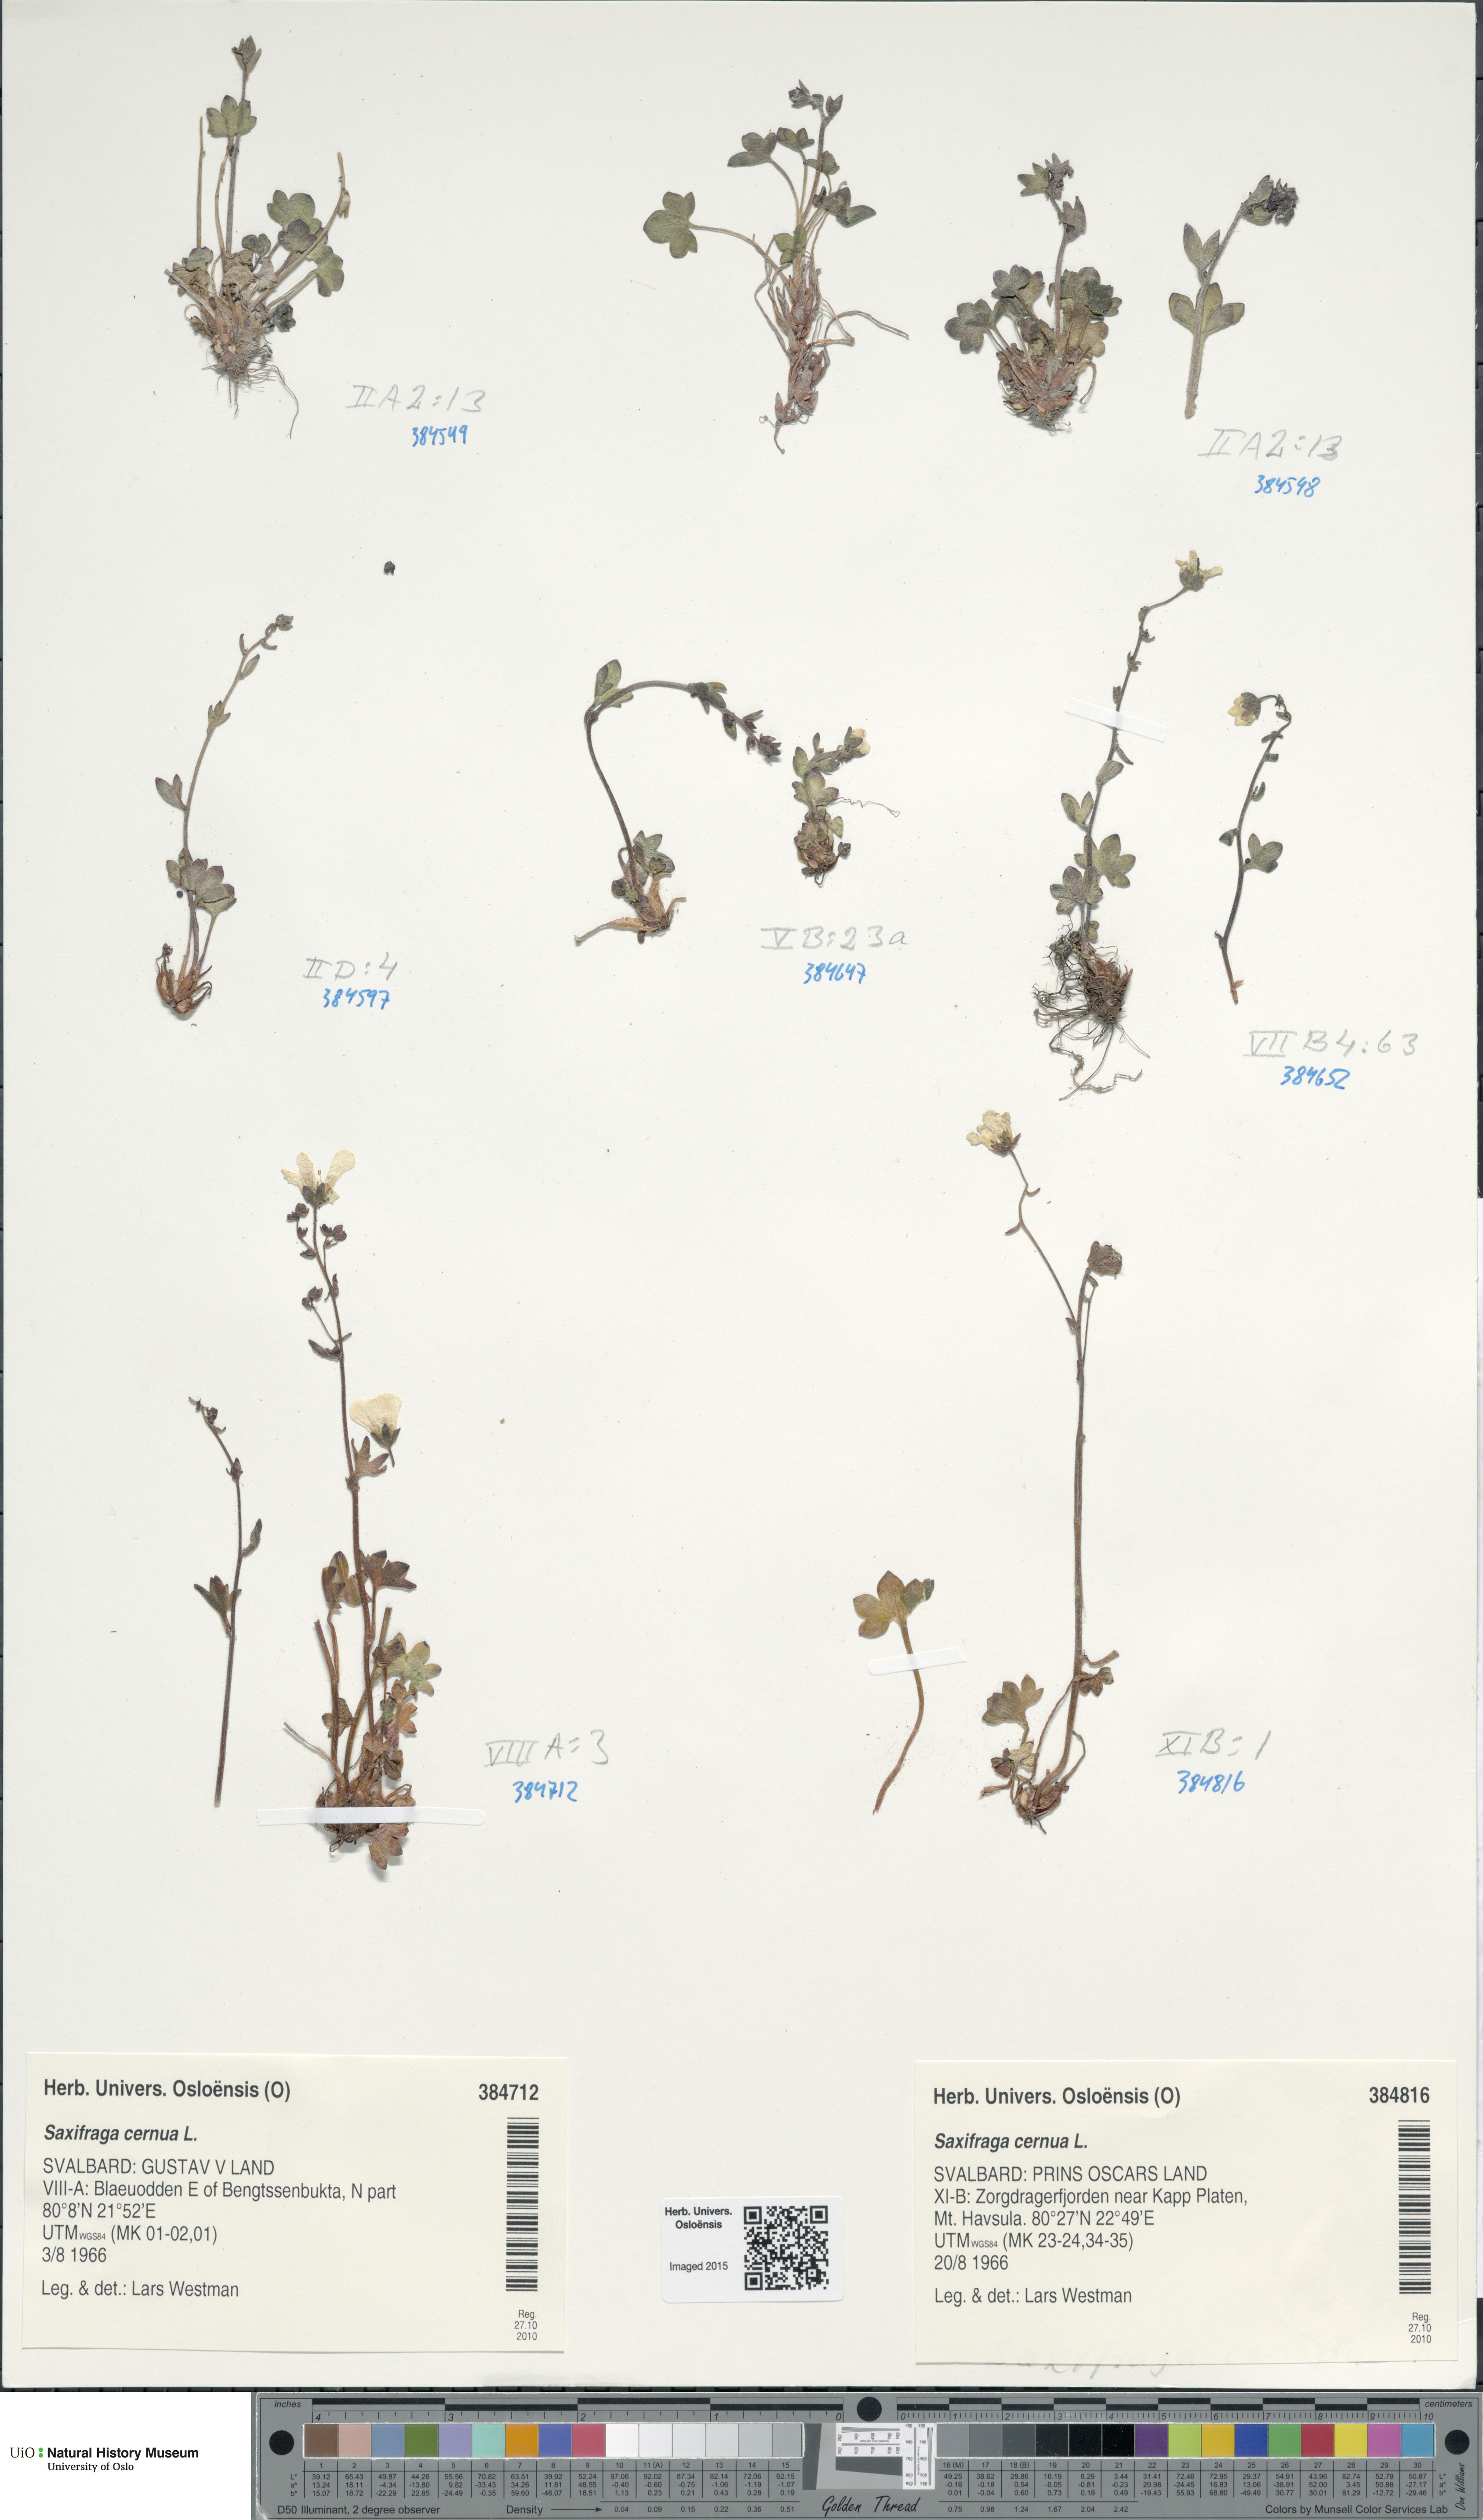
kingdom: Plantae
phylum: Tracheophyta
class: Magnoliopsida
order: Saxifragales
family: Saxifragaceae
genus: Saxifraga
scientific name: Saxifraga cernua
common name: Drooping saxifrage
